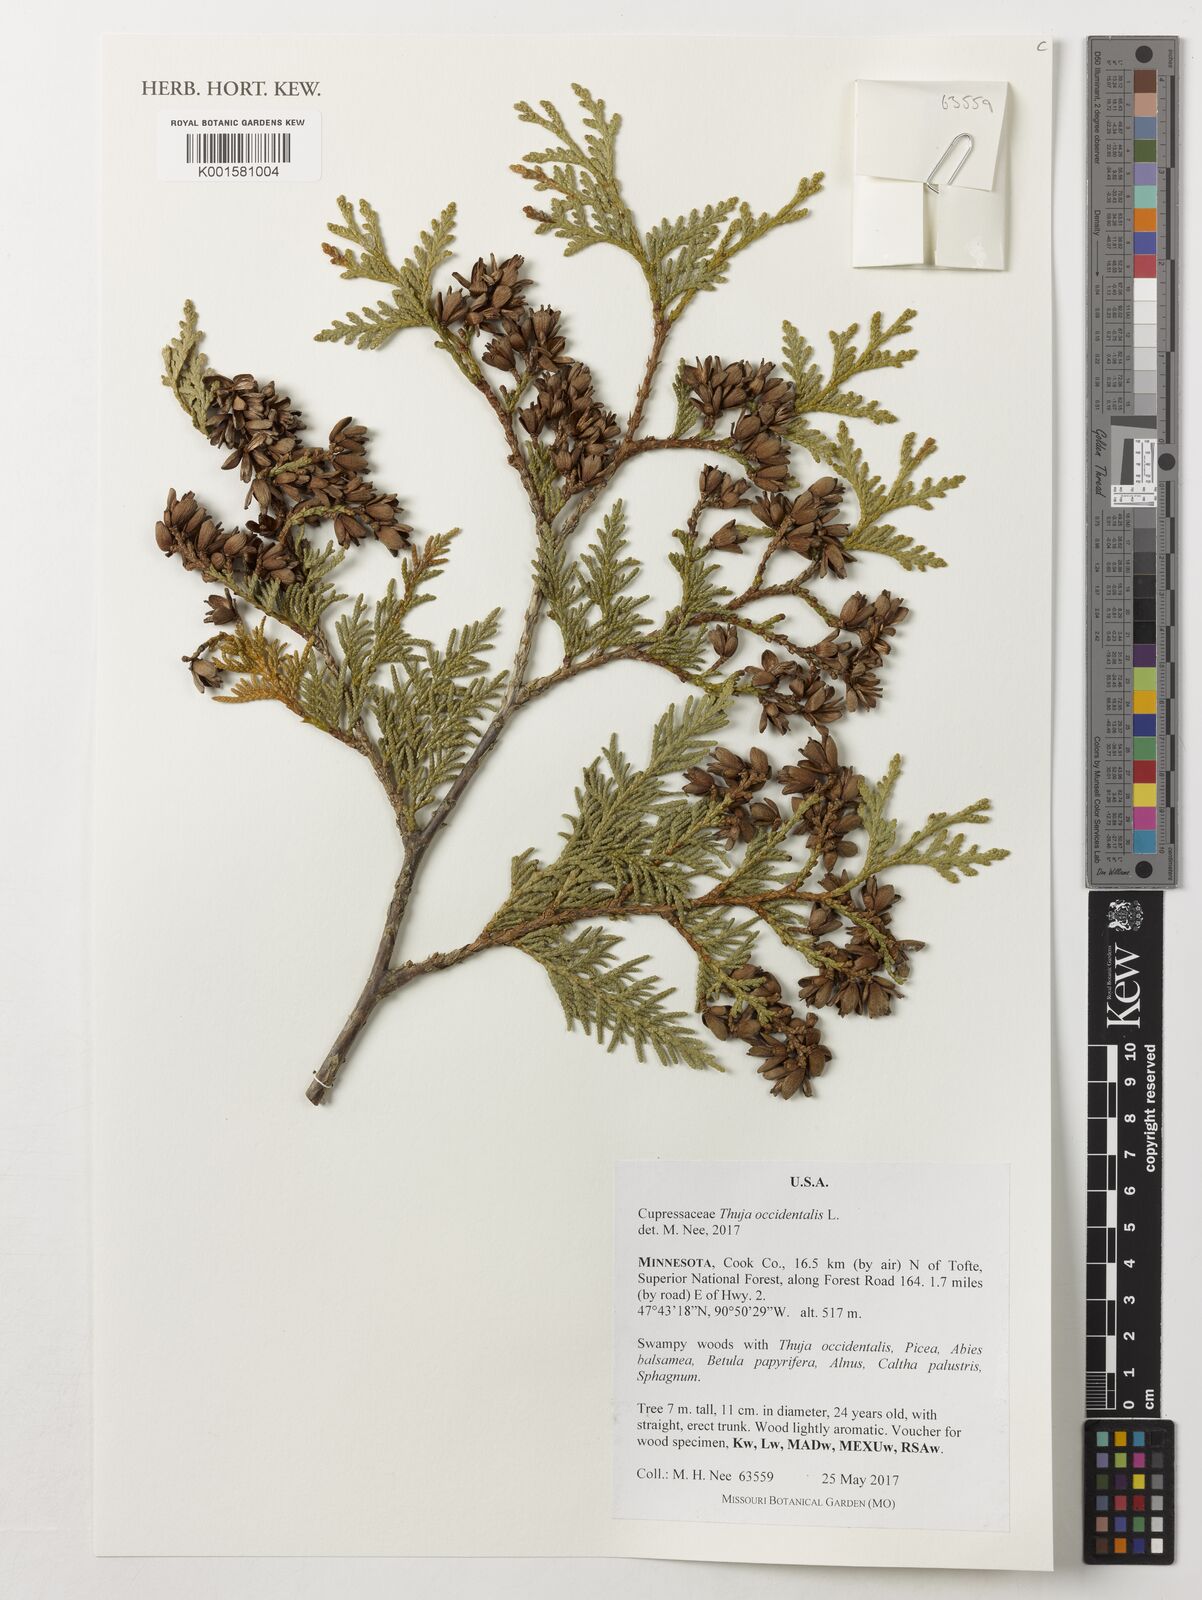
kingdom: Plantae
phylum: Tracheophyta
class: Pinopsida
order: Pinales
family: Cupressaceae
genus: Thuja
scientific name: Thuja occidentalis
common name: Northern white-cedar
